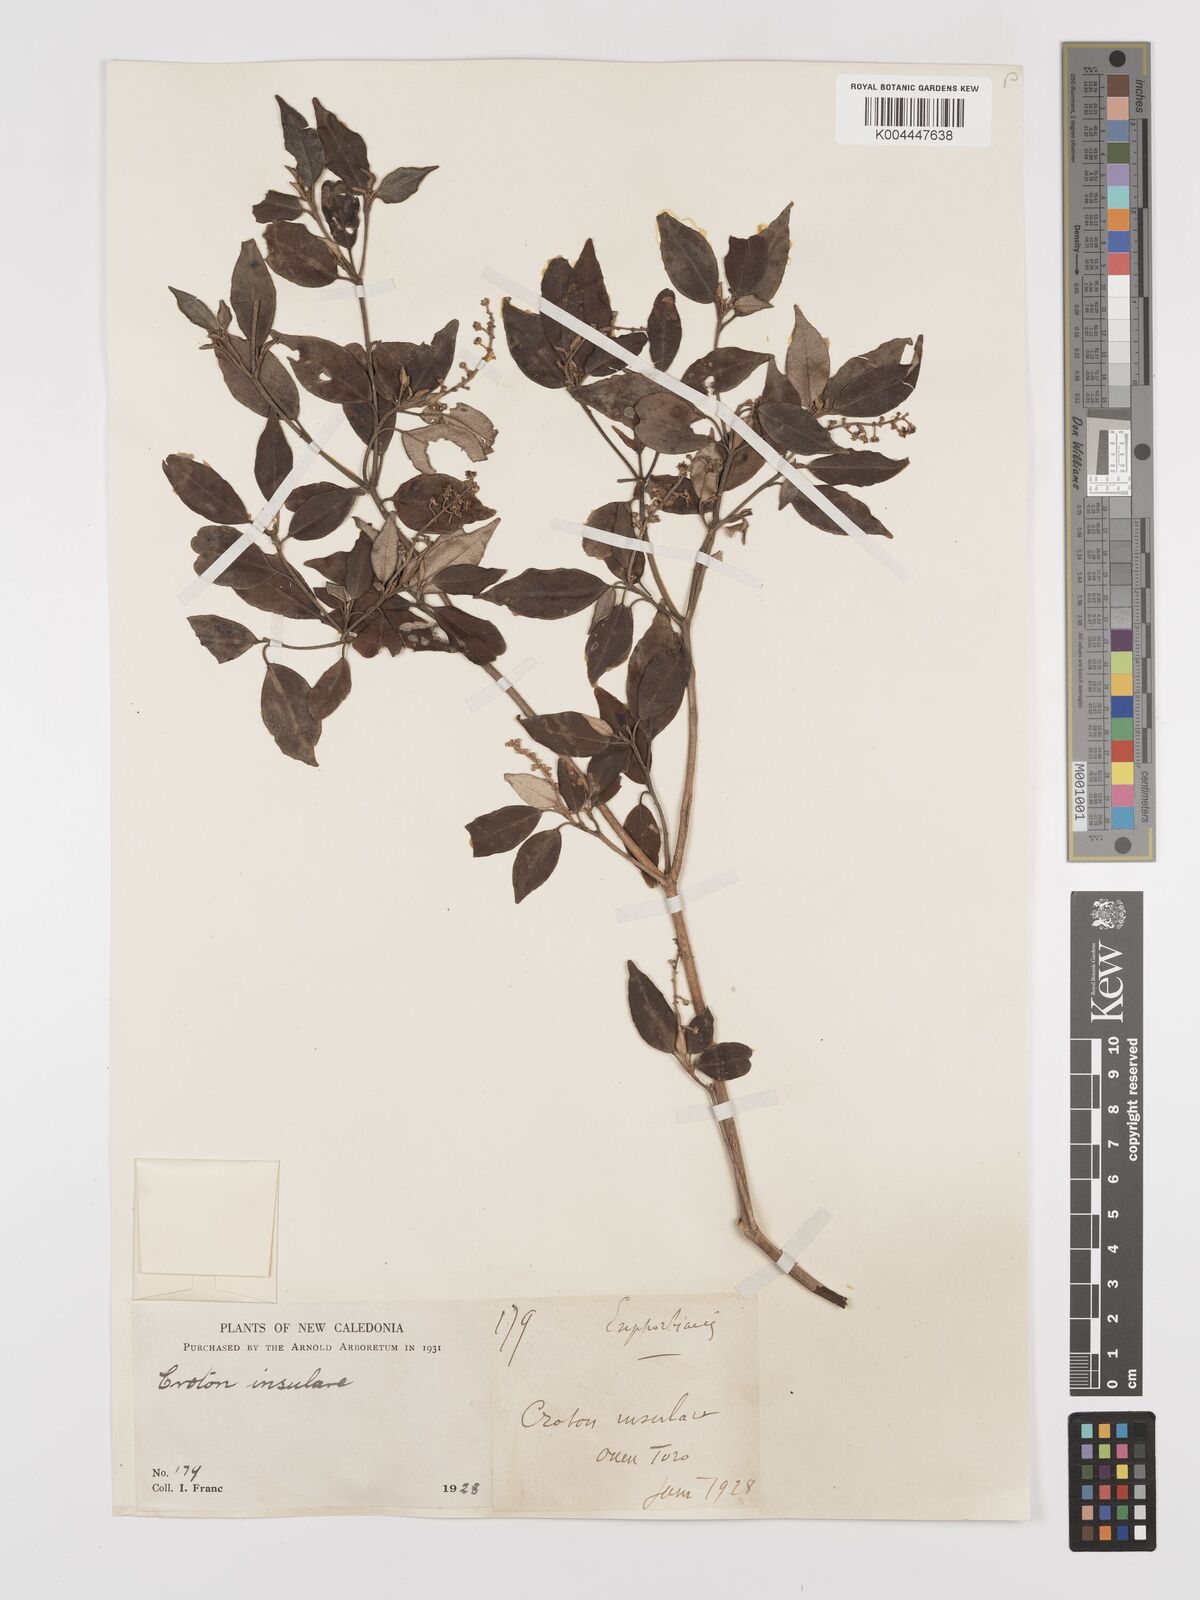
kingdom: Plantae
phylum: Tracheophyta
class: Magnoliopsida
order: Malpighiales
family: Euphorbiaceae
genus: Croton
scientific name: Croton insularis
